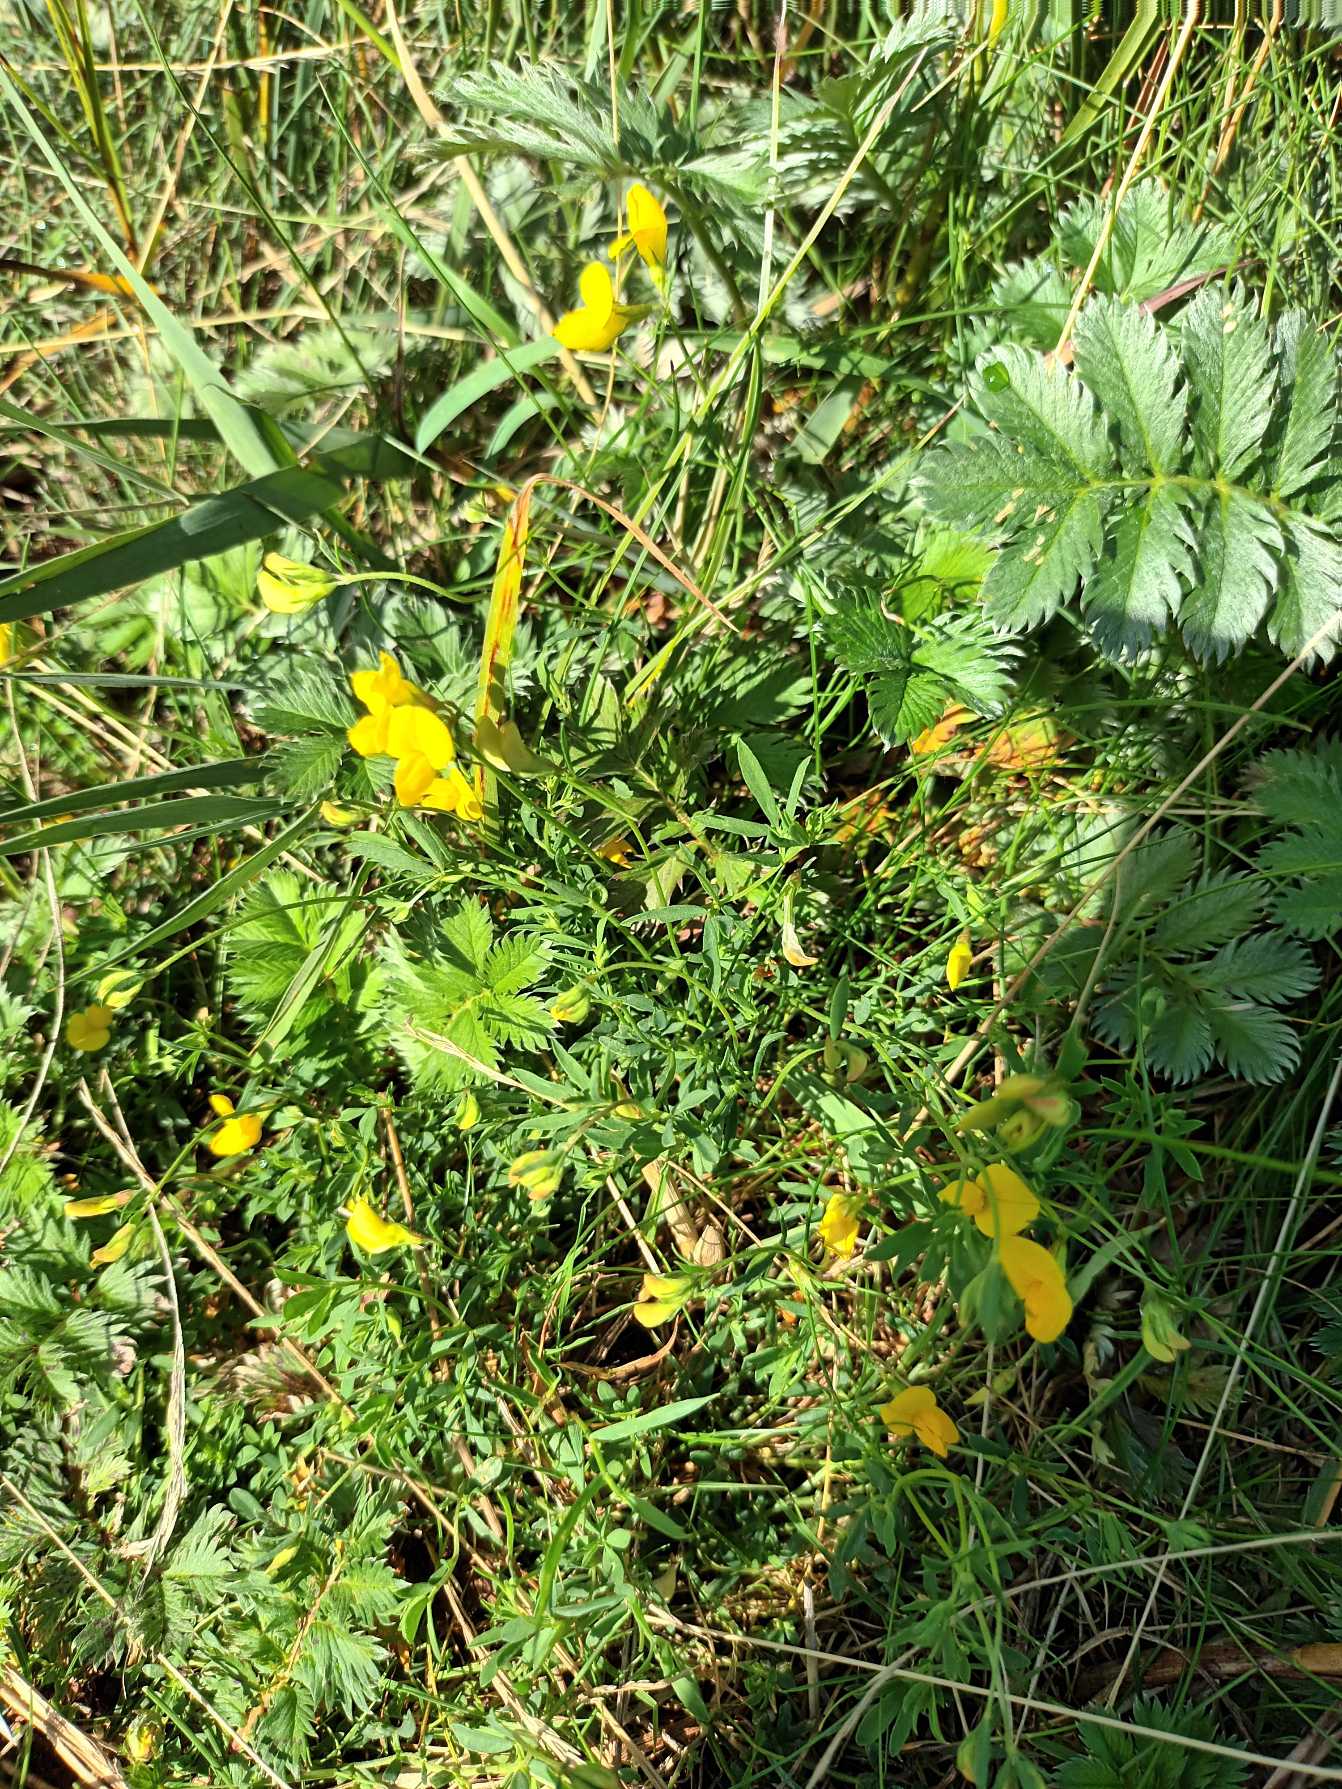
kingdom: Plantae
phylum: Tracheophyta
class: Magnoliopsida
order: Fabales
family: Fabaceae
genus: Lotus
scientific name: Lotus tenuis
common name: Smalbladet kællingetand
